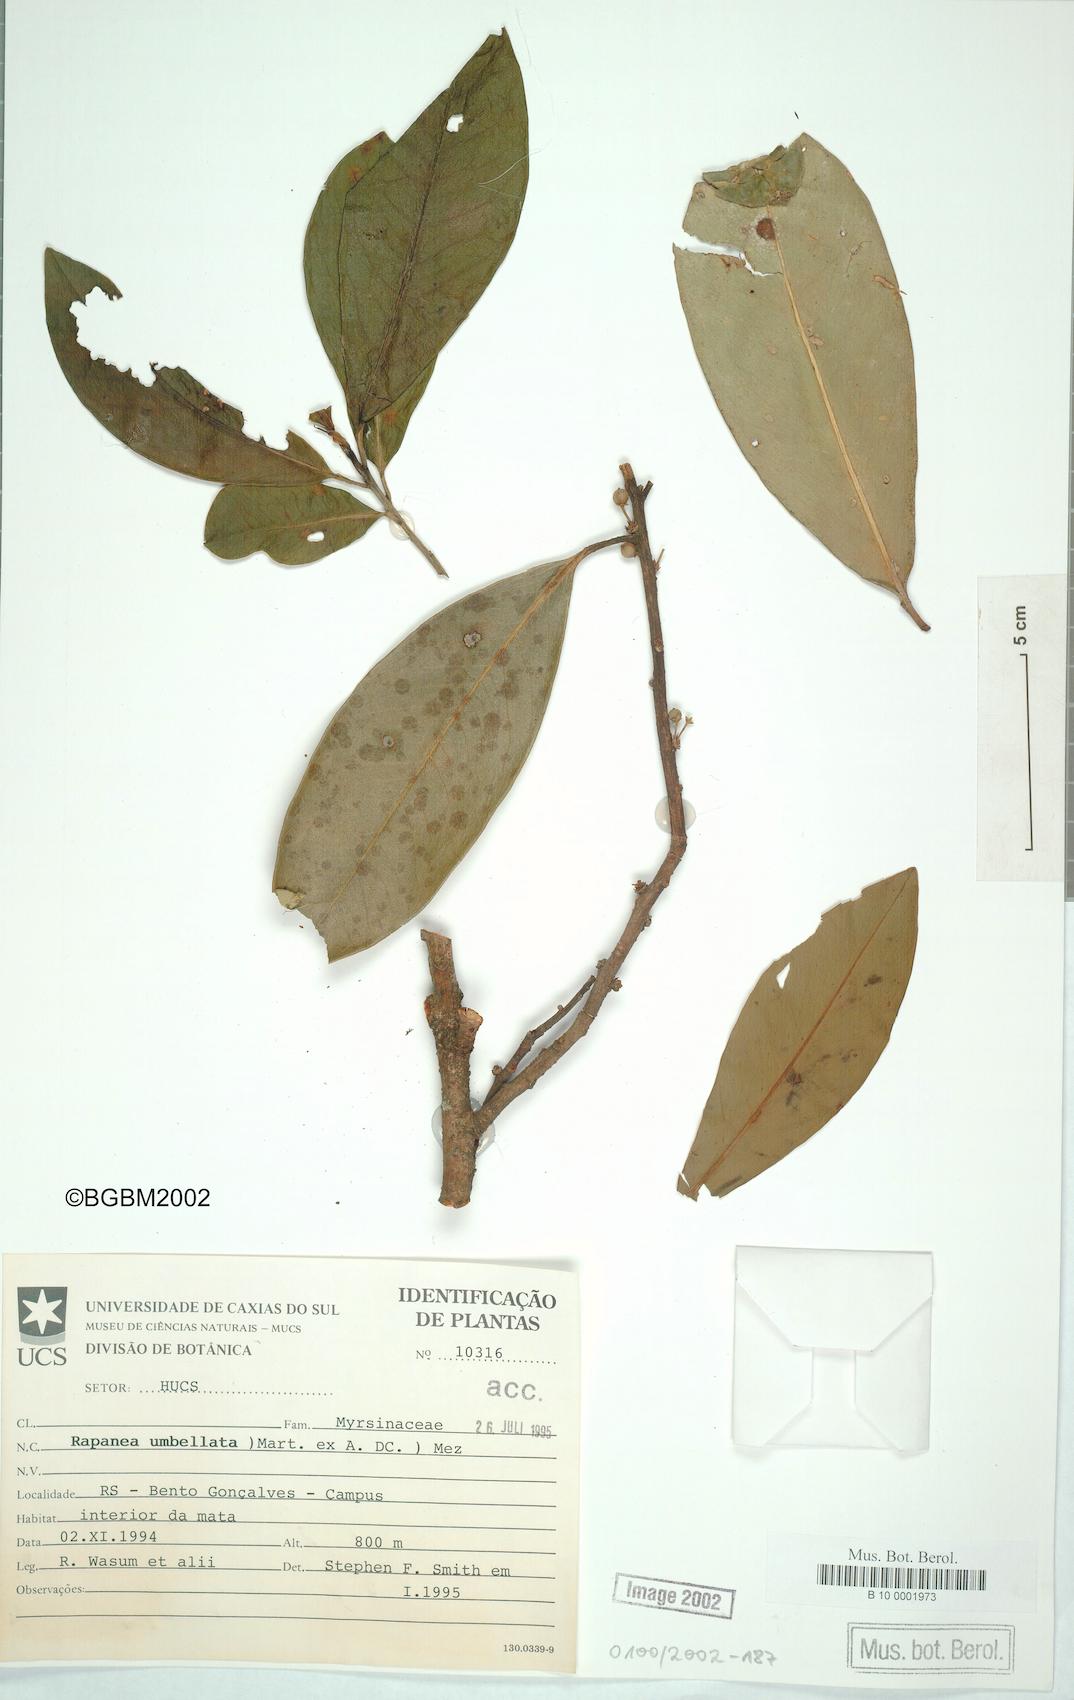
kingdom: Plantae
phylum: Tracheophyta
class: Magnoliopsida
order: Ericales
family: Primulaceae
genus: Myrsine
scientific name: Myrsine umbellata
